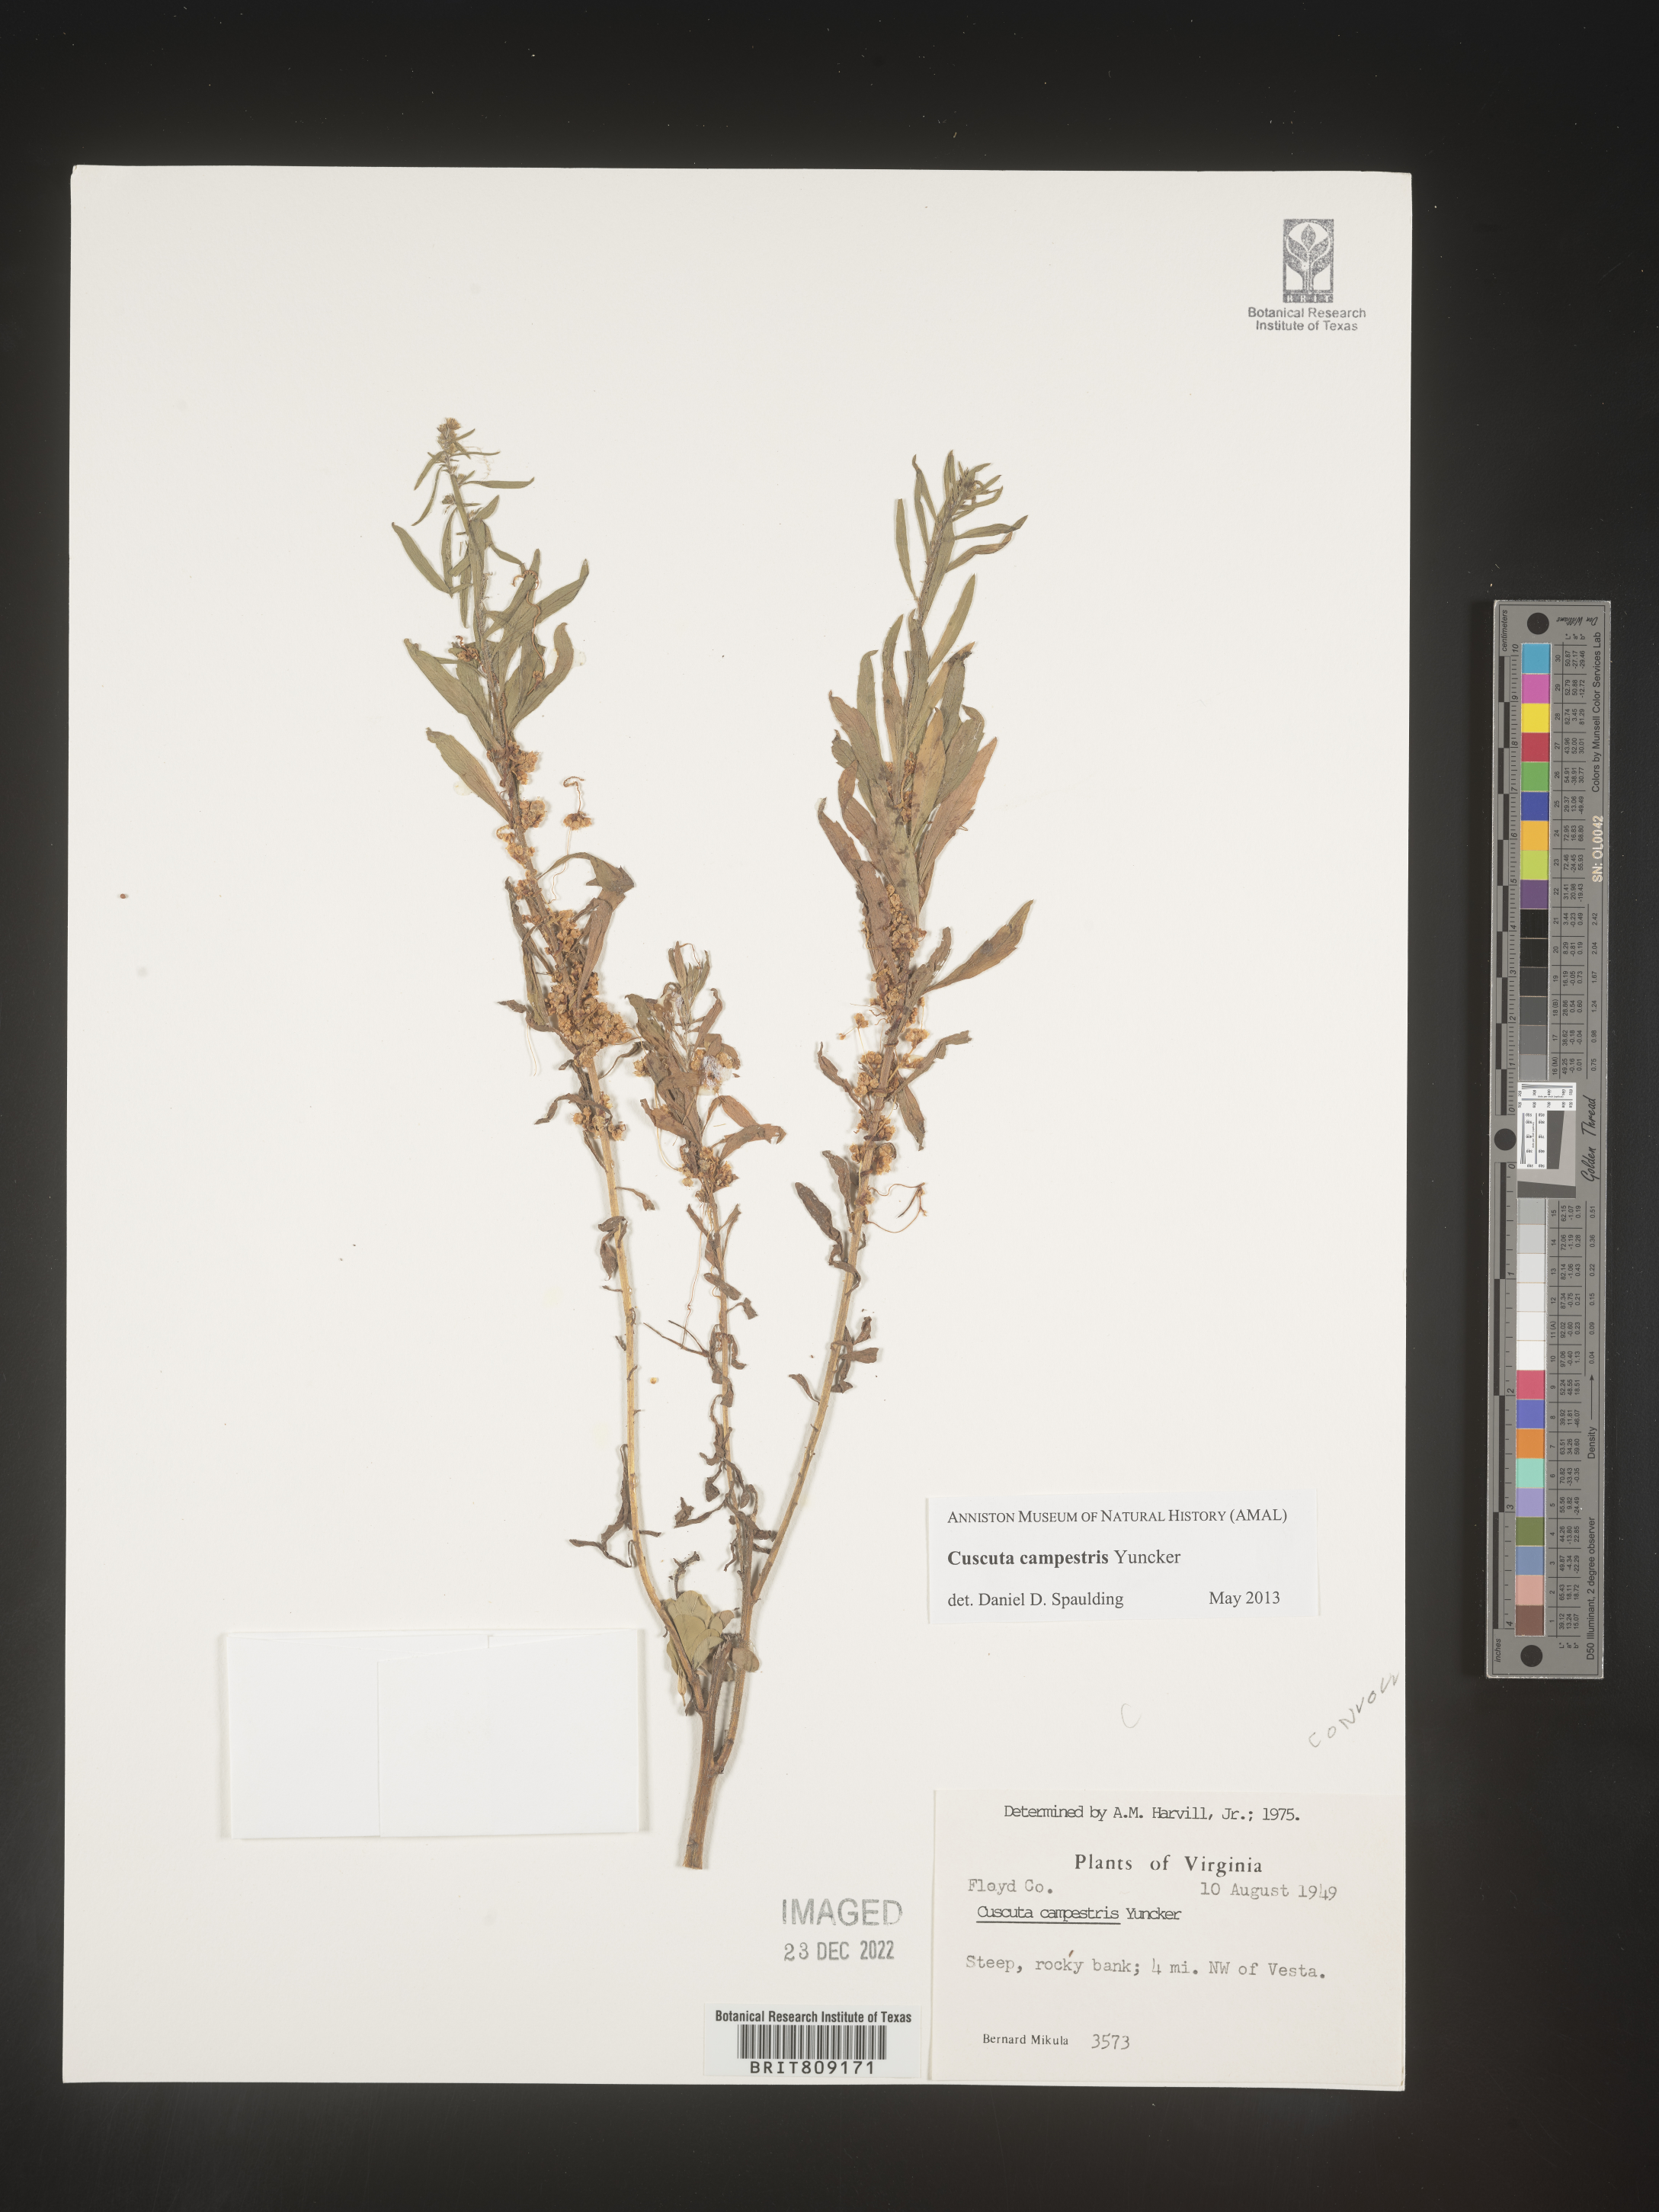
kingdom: Plantae
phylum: Tracheophyta
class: Magnoliopsida
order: Solanales
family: Convolvulaceae
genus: Cuscuta
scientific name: Cuscuta campestris
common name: Yellow dodder
